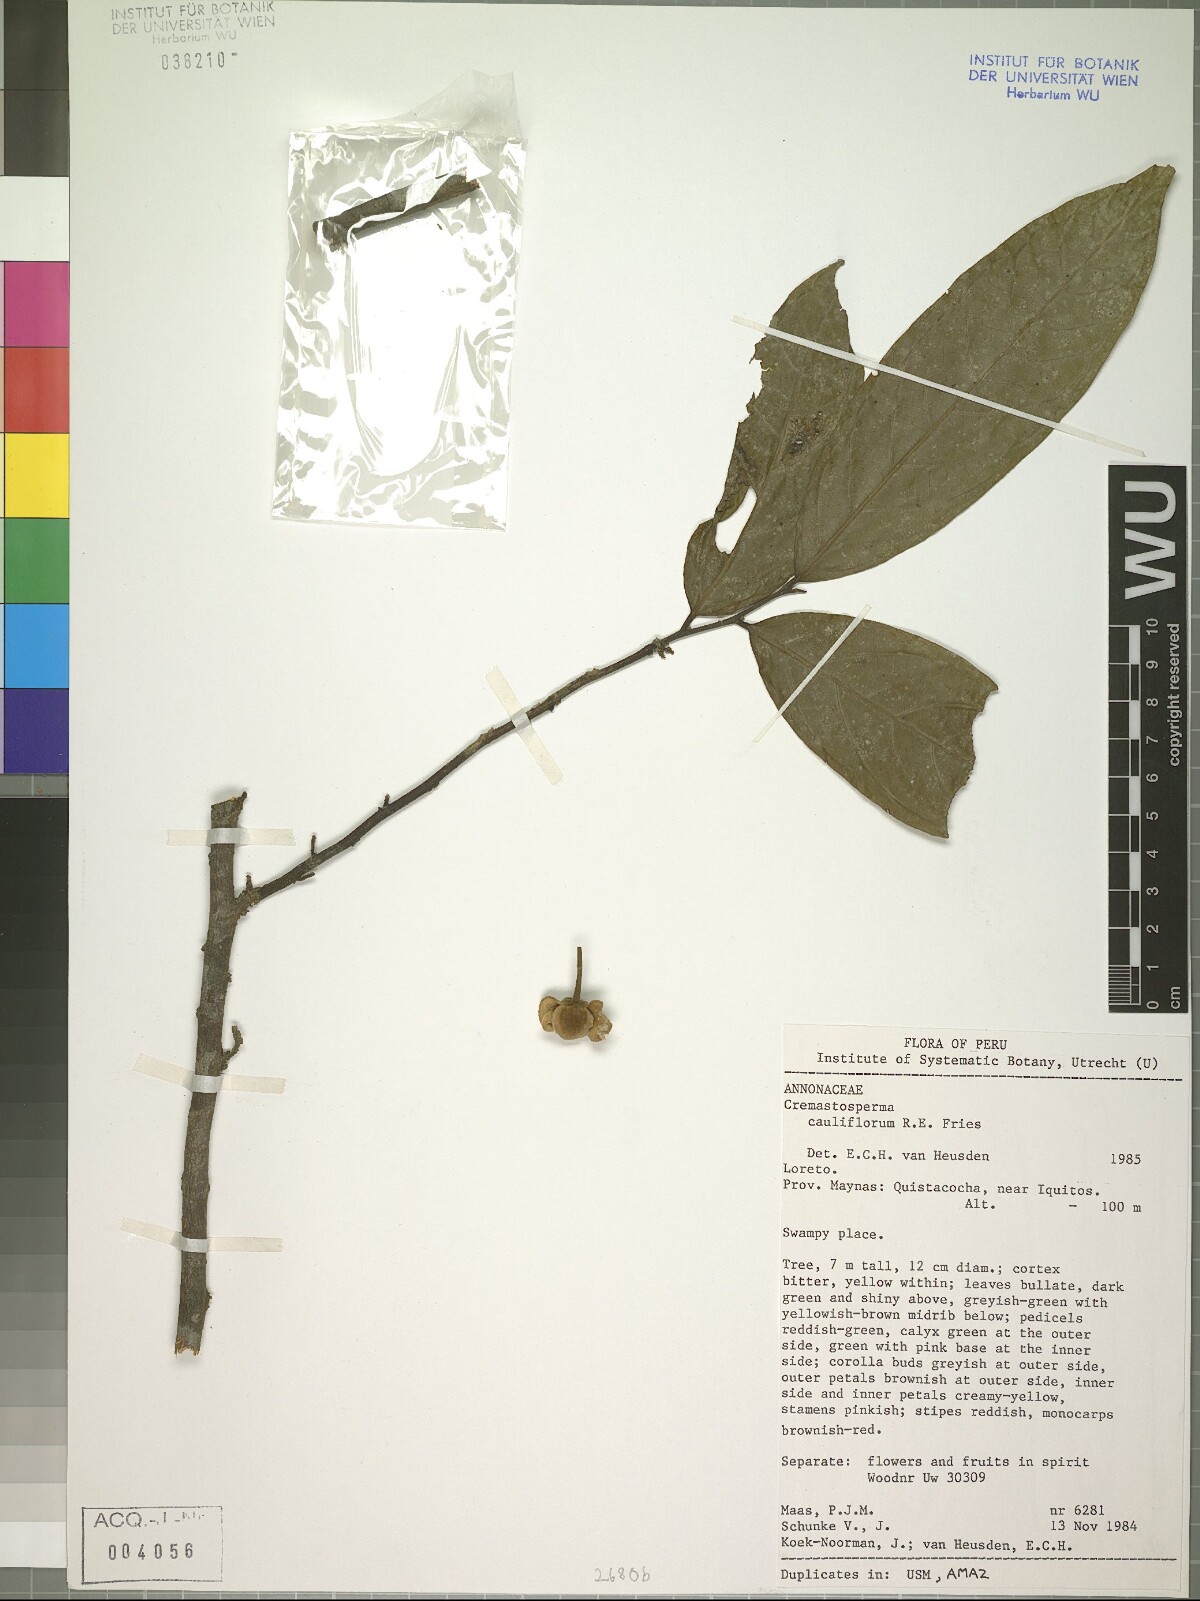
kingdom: Plantae
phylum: Tracheophyta
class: Magnoliopsida
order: Magnoliales
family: Annonaceae
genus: Cremastosperma
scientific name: Cremastosperma microcarpum
